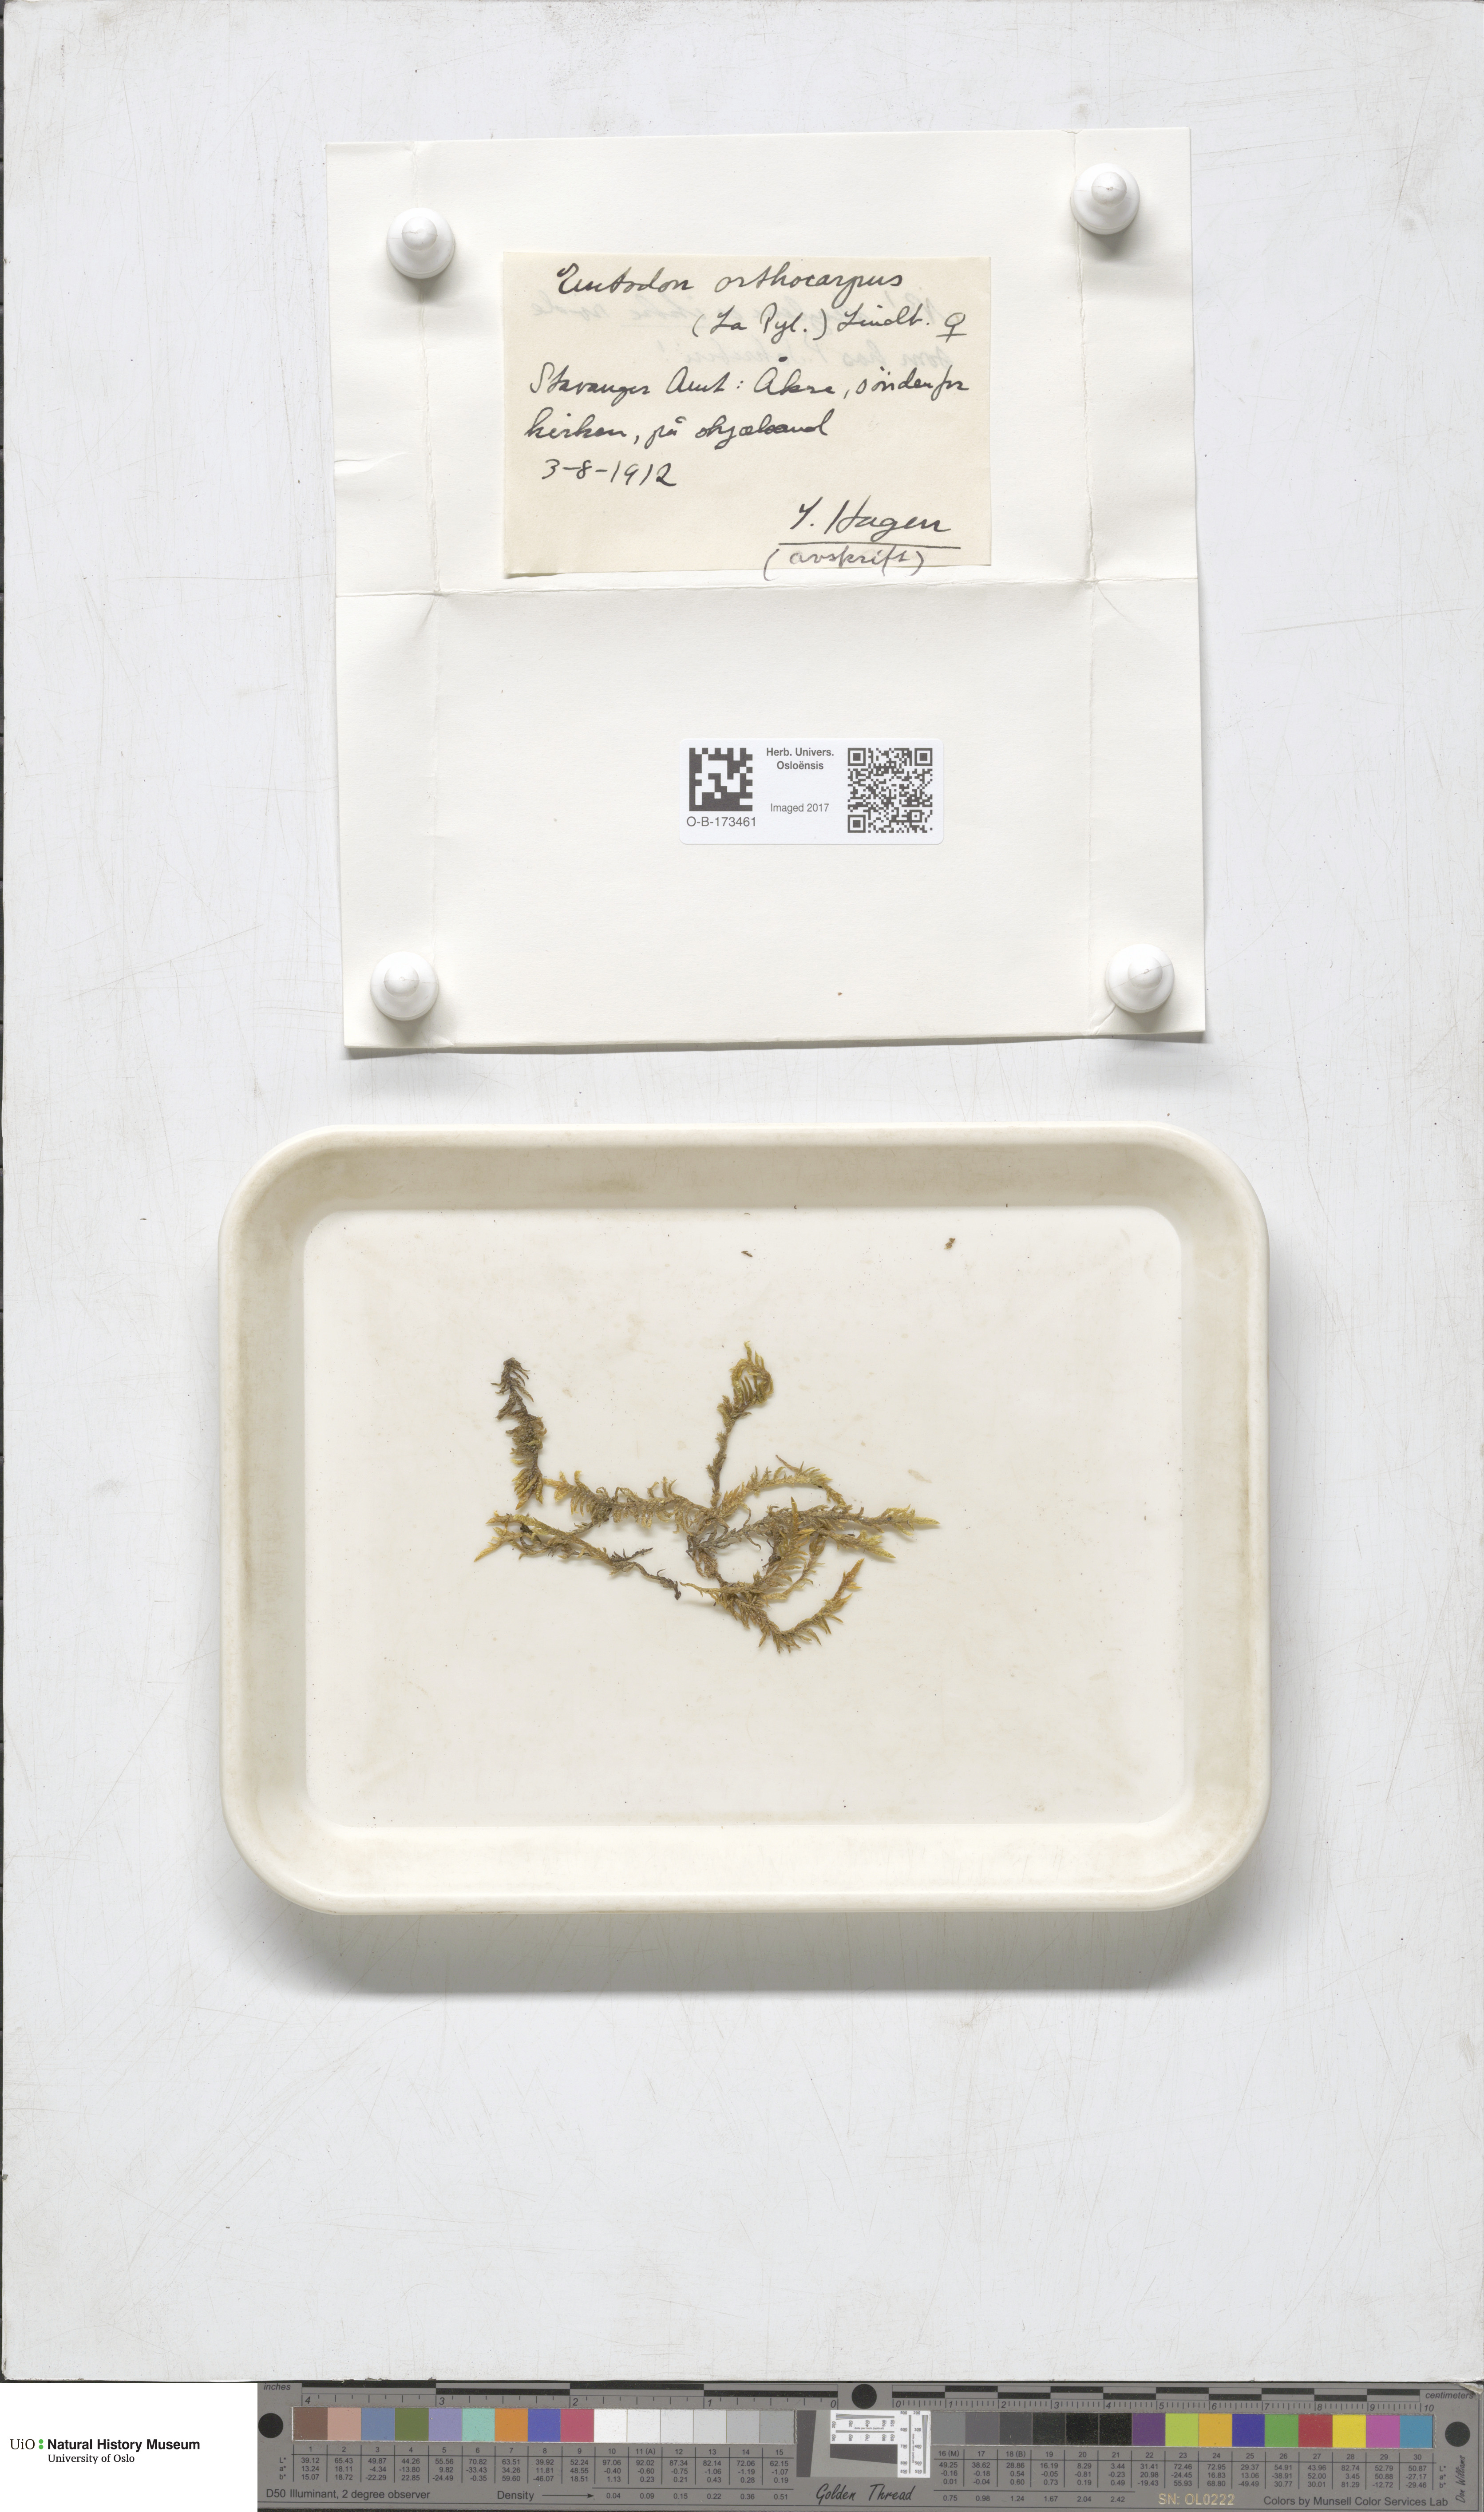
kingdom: Plantae
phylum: Bryophyta
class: Bryopsida
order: Hypnales
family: Entodontaceae
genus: Entodon
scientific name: Entodon concinnus
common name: Montagne's cylinder-moss
